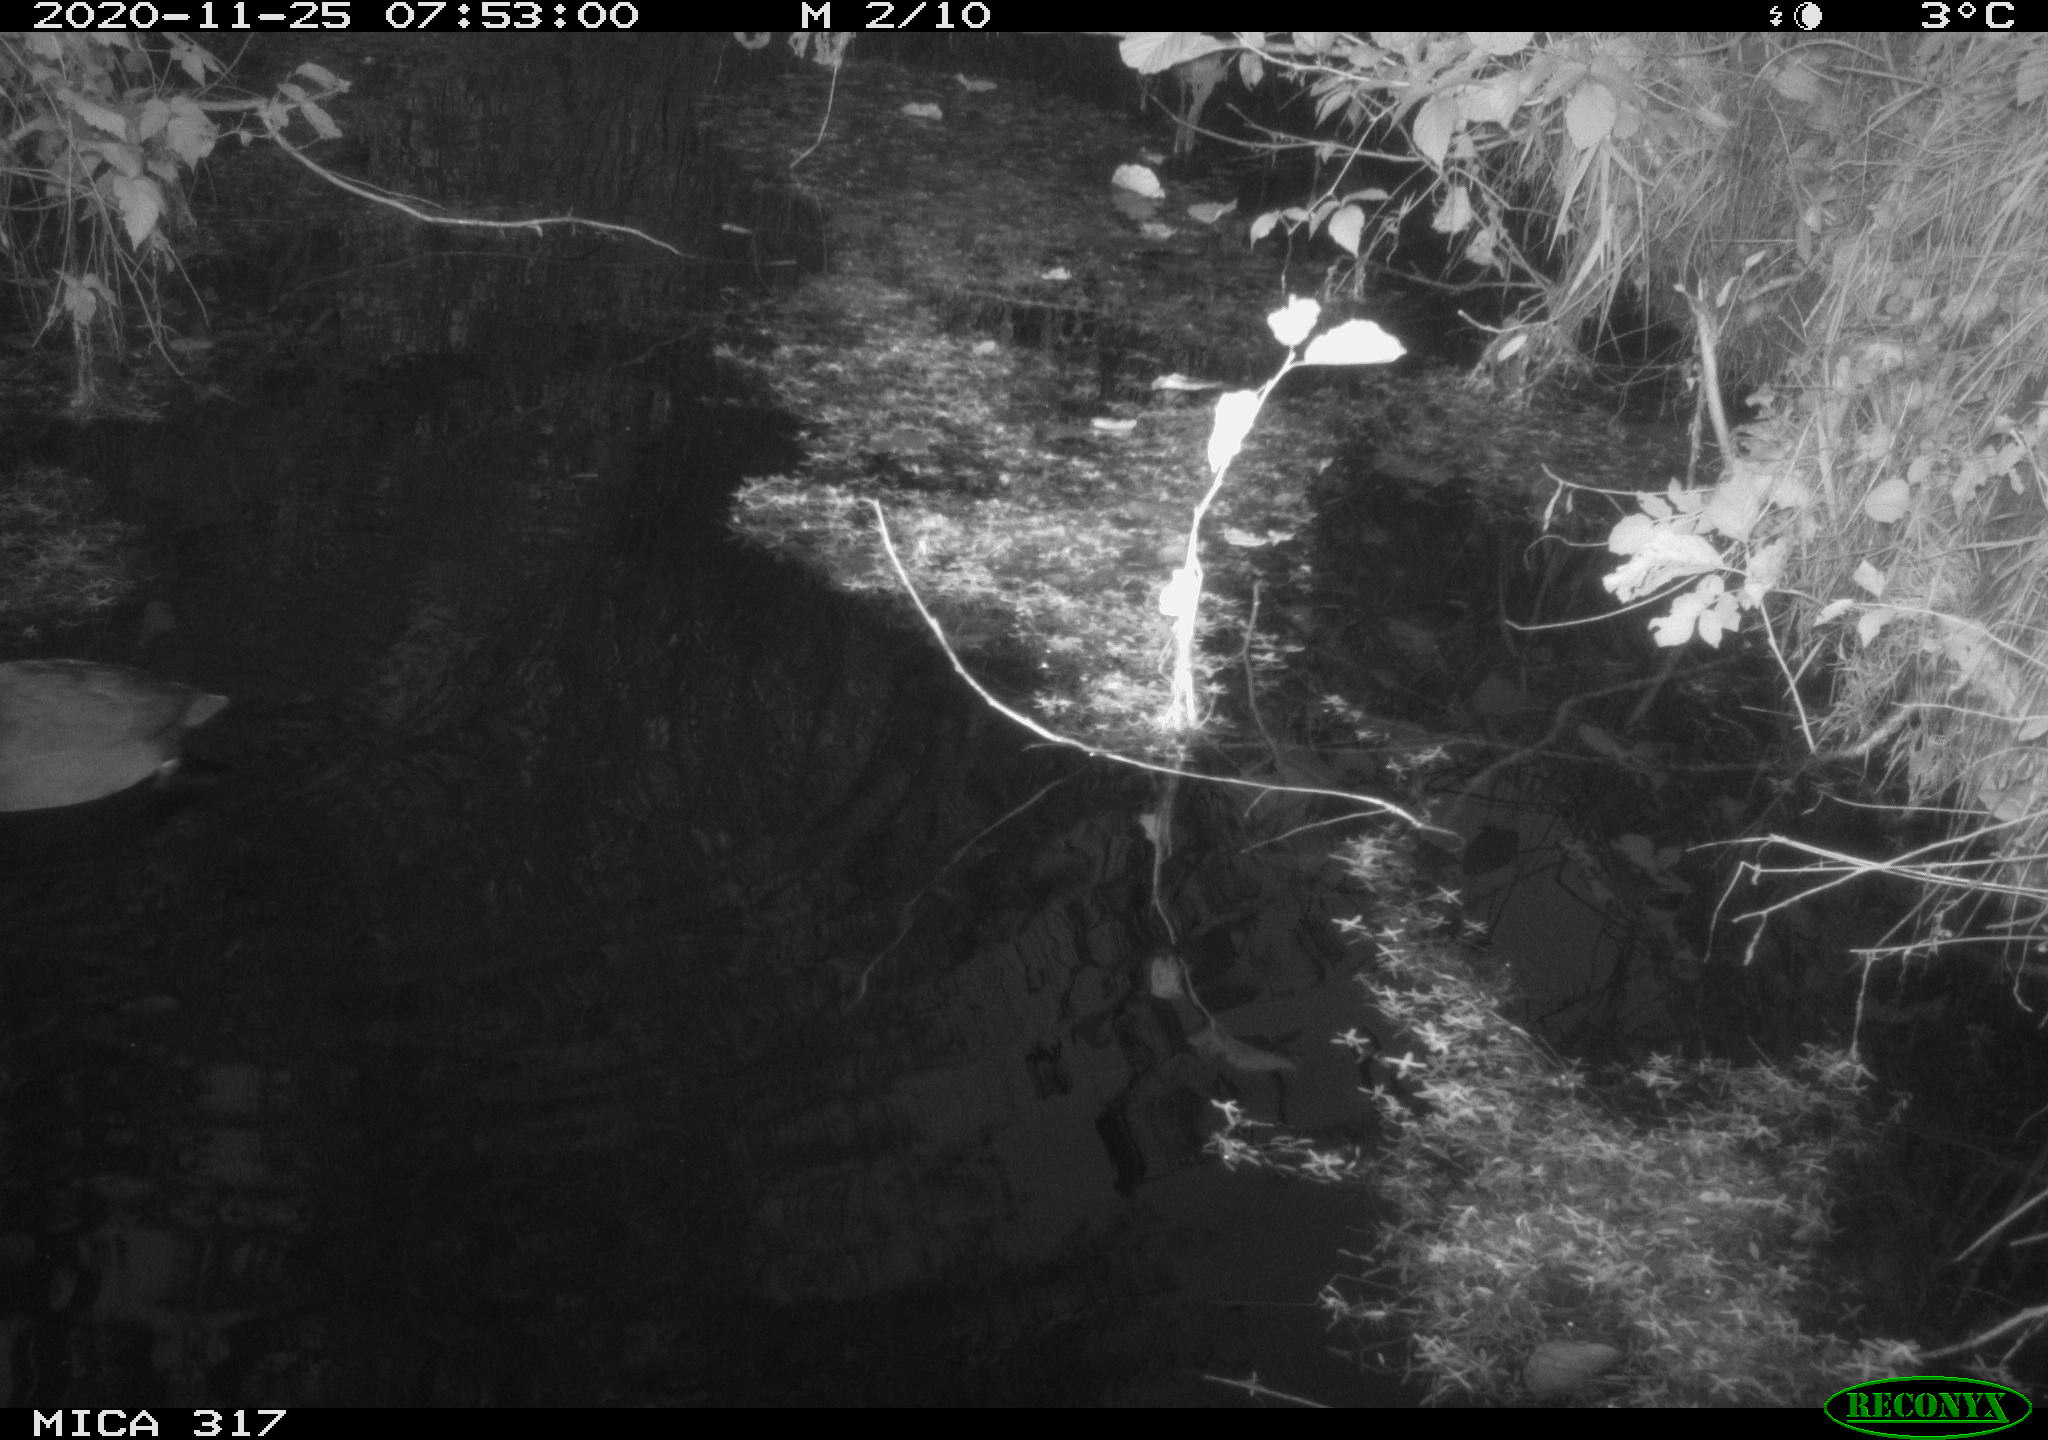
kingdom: Animalia
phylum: Chordata
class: Aves
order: Gruiformes
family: Rallidae
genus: Fulica
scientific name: Fulica atra
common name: Eurasian coot
